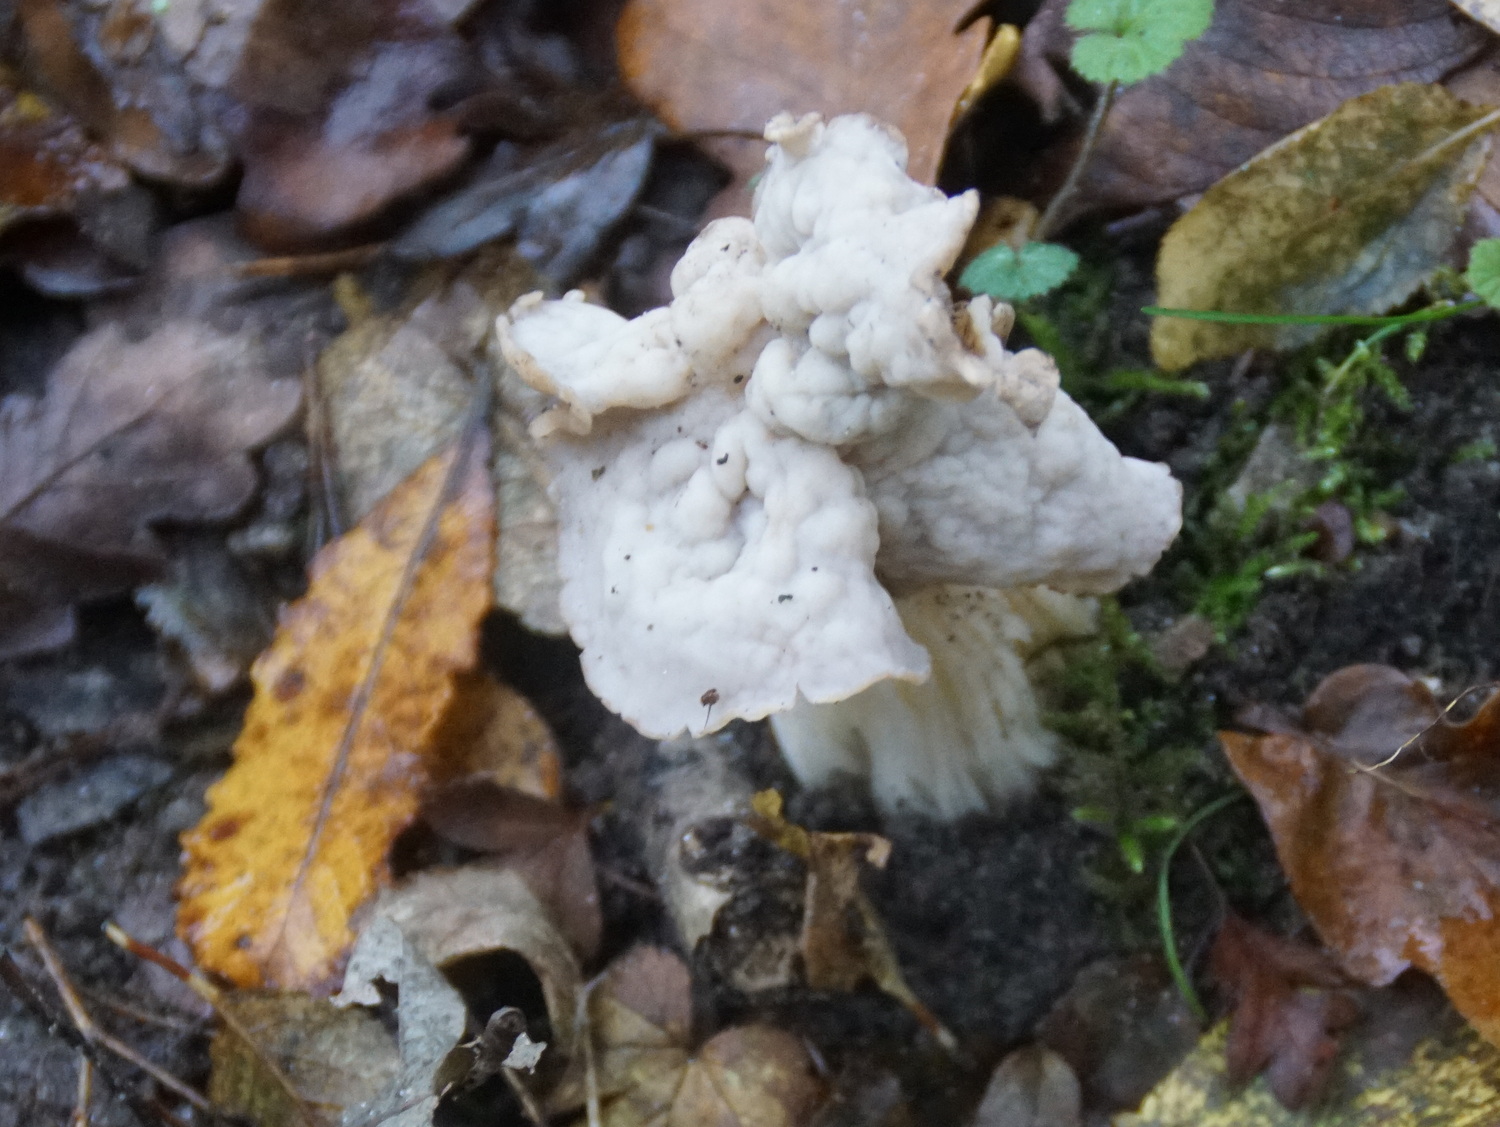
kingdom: Fungi
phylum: Ascomycota
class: Pezizomycetes
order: Pezizales
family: Helvellaceae
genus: Helvella
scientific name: Helvella crispa
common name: kruset foldhat
